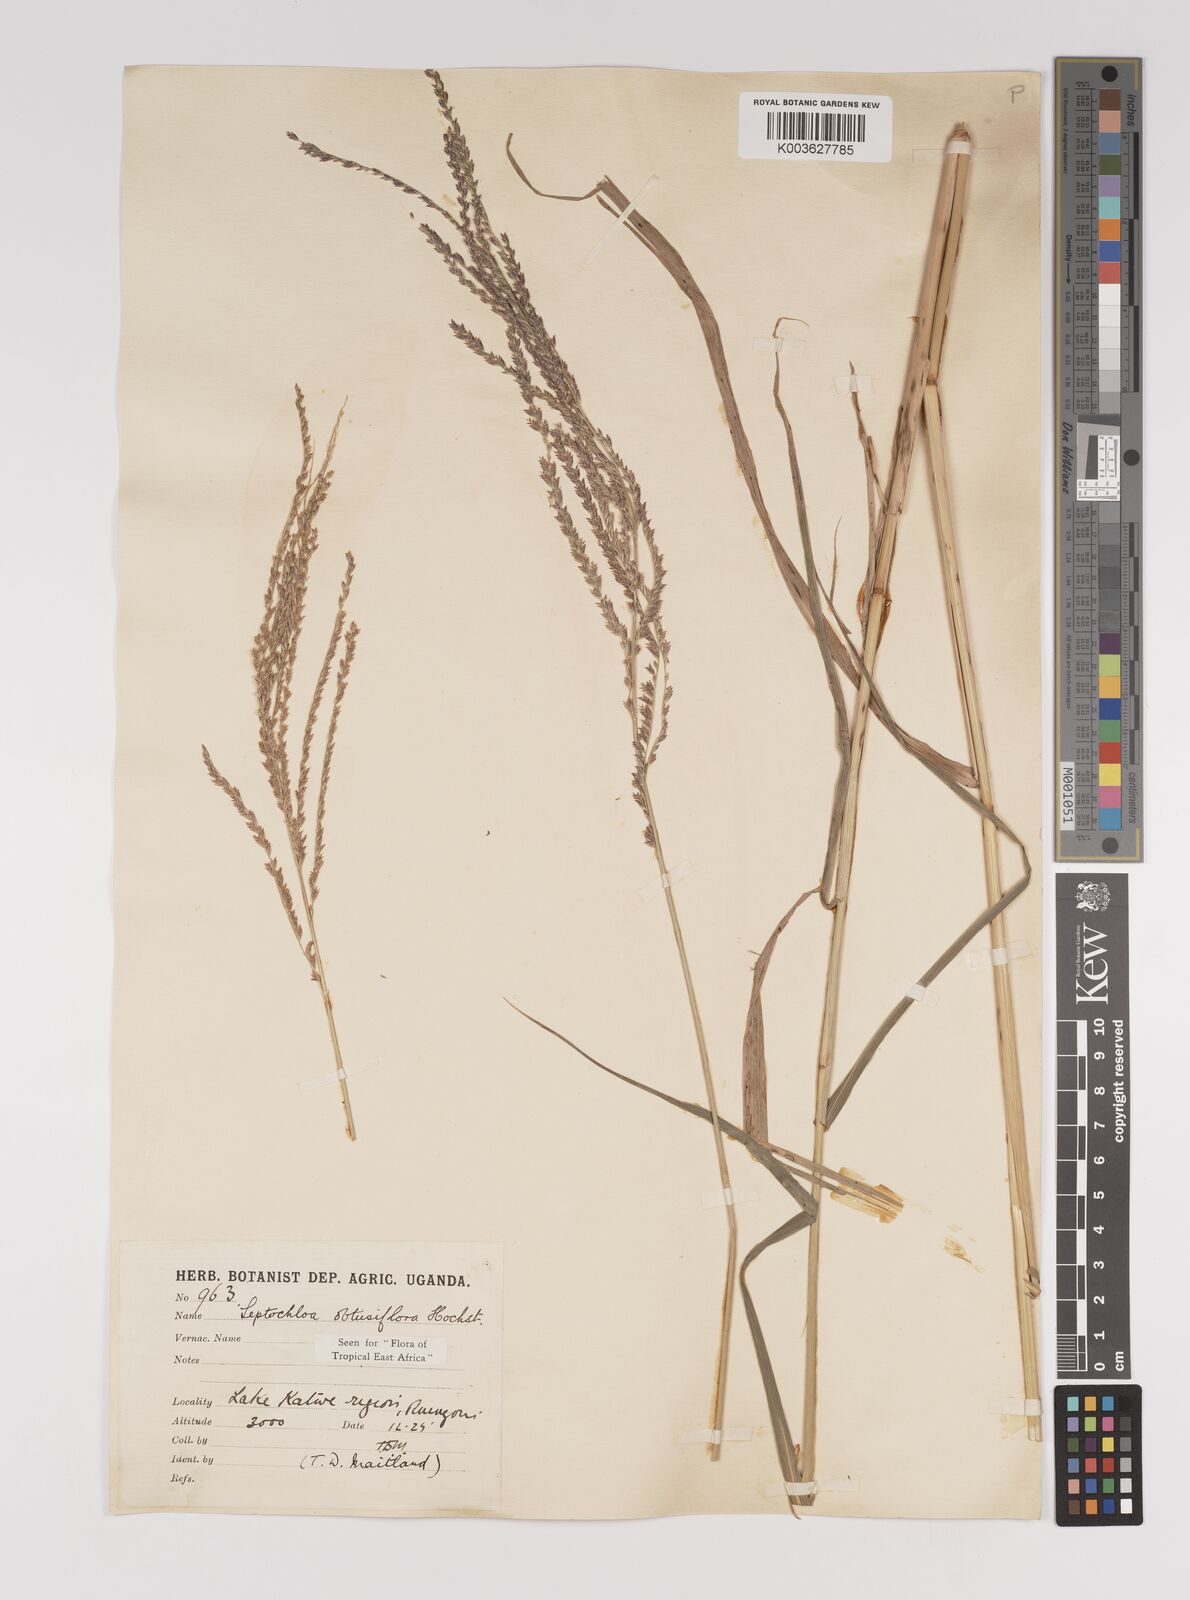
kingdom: Plantae
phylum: Tracheophyta
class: Liliopsida
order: Poales
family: Poaceae
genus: Disakisperma
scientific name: Disakisperma obtusiflorum
